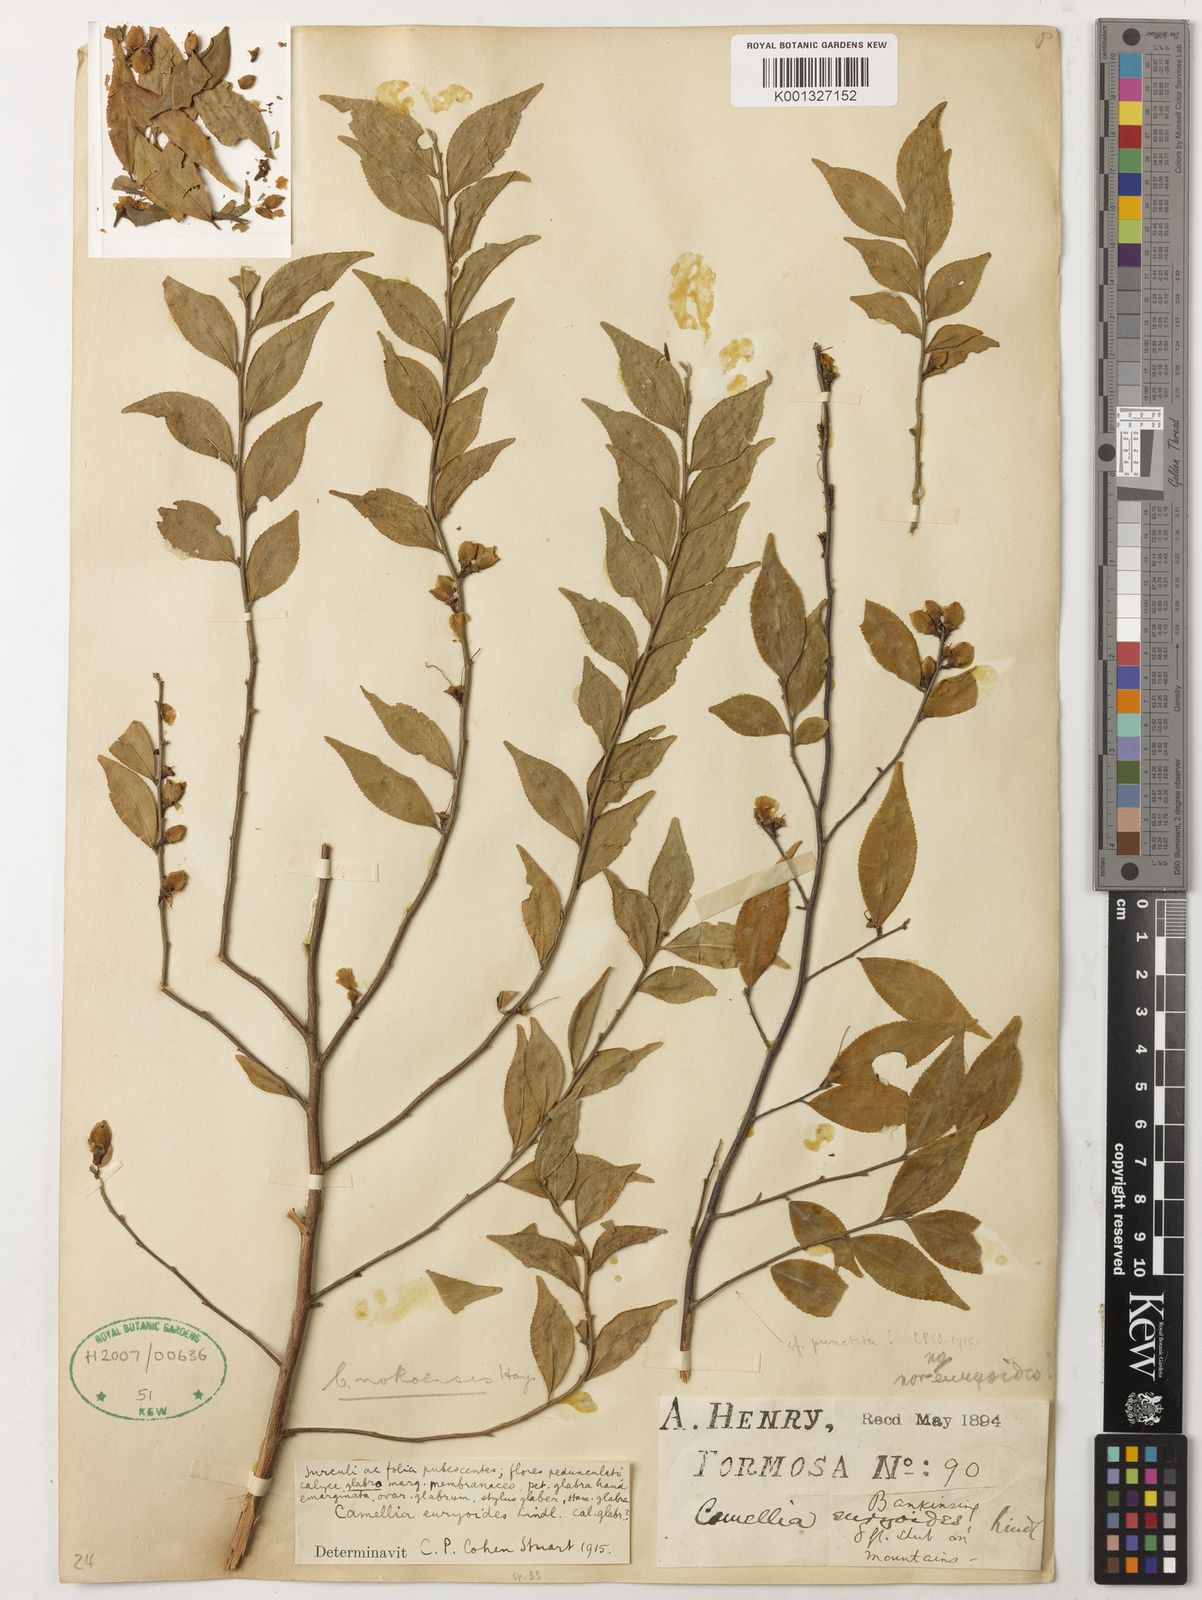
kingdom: Plantae
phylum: Tracheophyta
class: Magnoliopsida
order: Ericales
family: Theaceae
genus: Camellia
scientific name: Camellia euryoides
